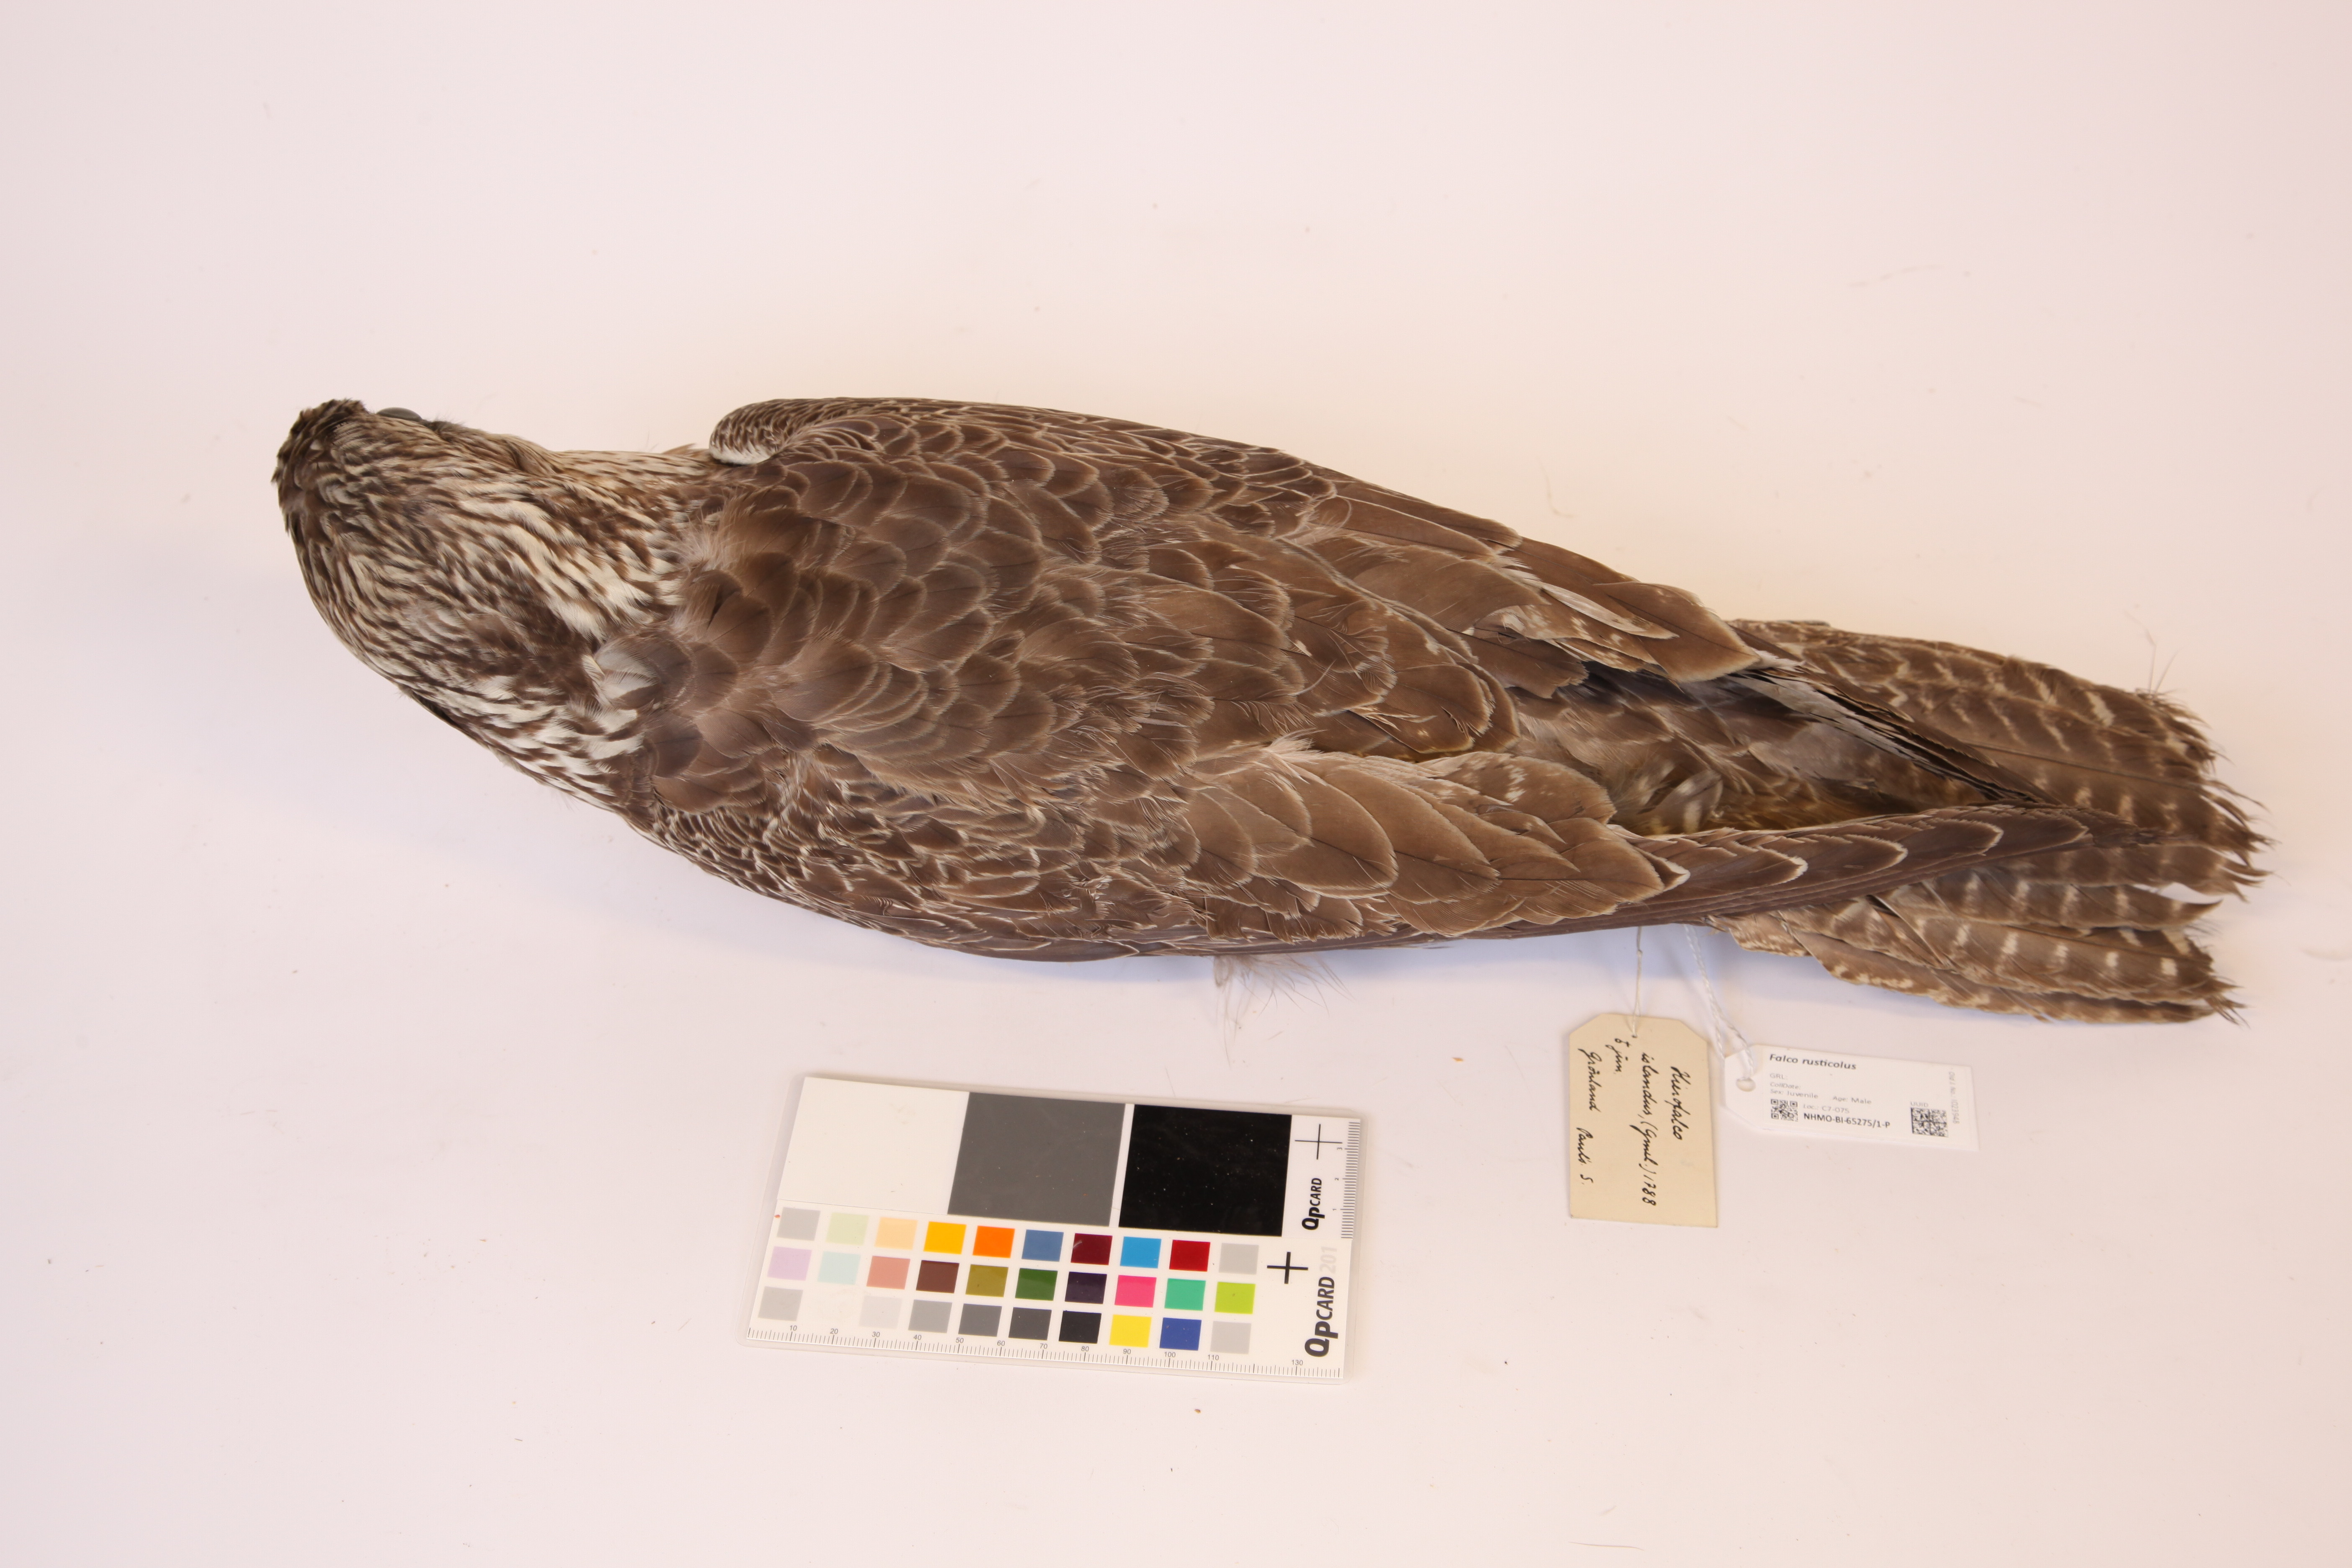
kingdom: Animalia
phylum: Chordata
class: Aves
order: Falconiformes
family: Falconidae
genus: Falco
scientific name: Falco rusticolus
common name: Gyrfalcon
